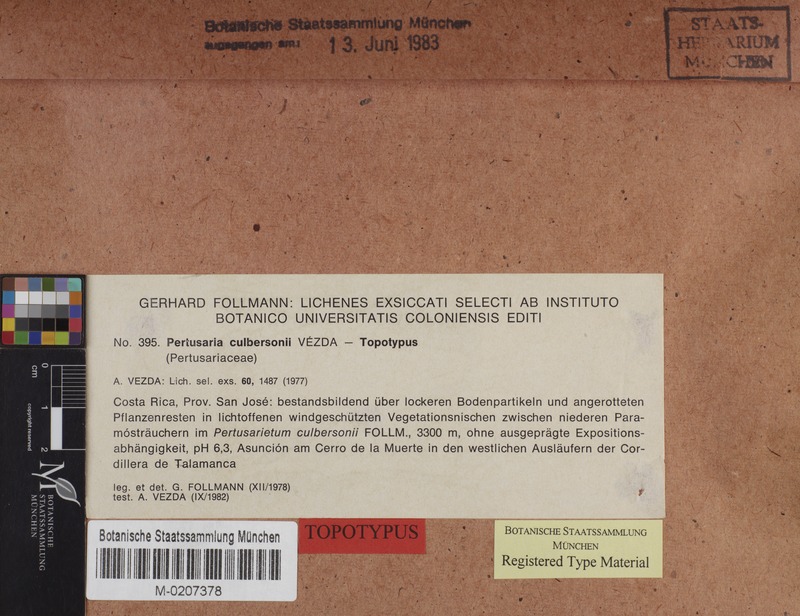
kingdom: Fungi
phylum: Ascomycota
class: Lecanoromycetes
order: Pertusariales
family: Varicellariaceae
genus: Varicellaria
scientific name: Varicellaria culbersonii
